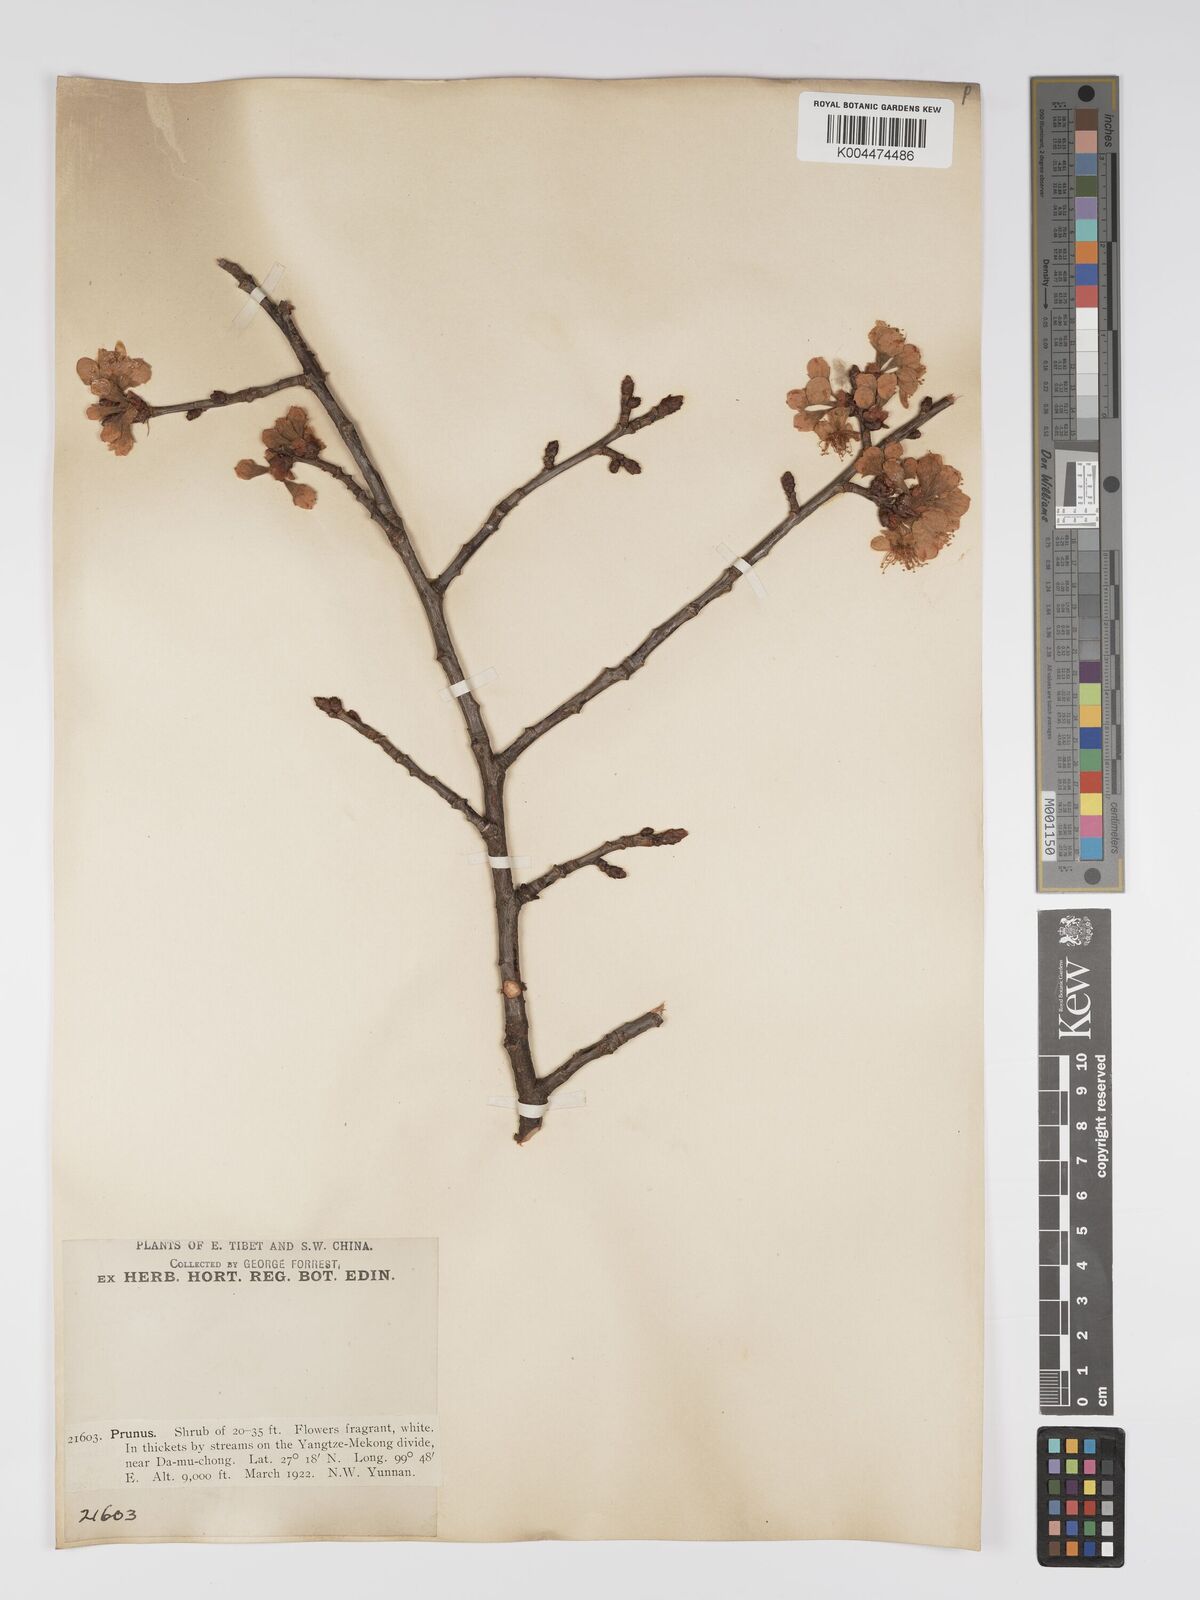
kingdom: Plantae
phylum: Tracheophyta
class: Magnoliopsida
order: Rosales
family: Rosaceae
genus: Prunus
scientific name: Prunus
